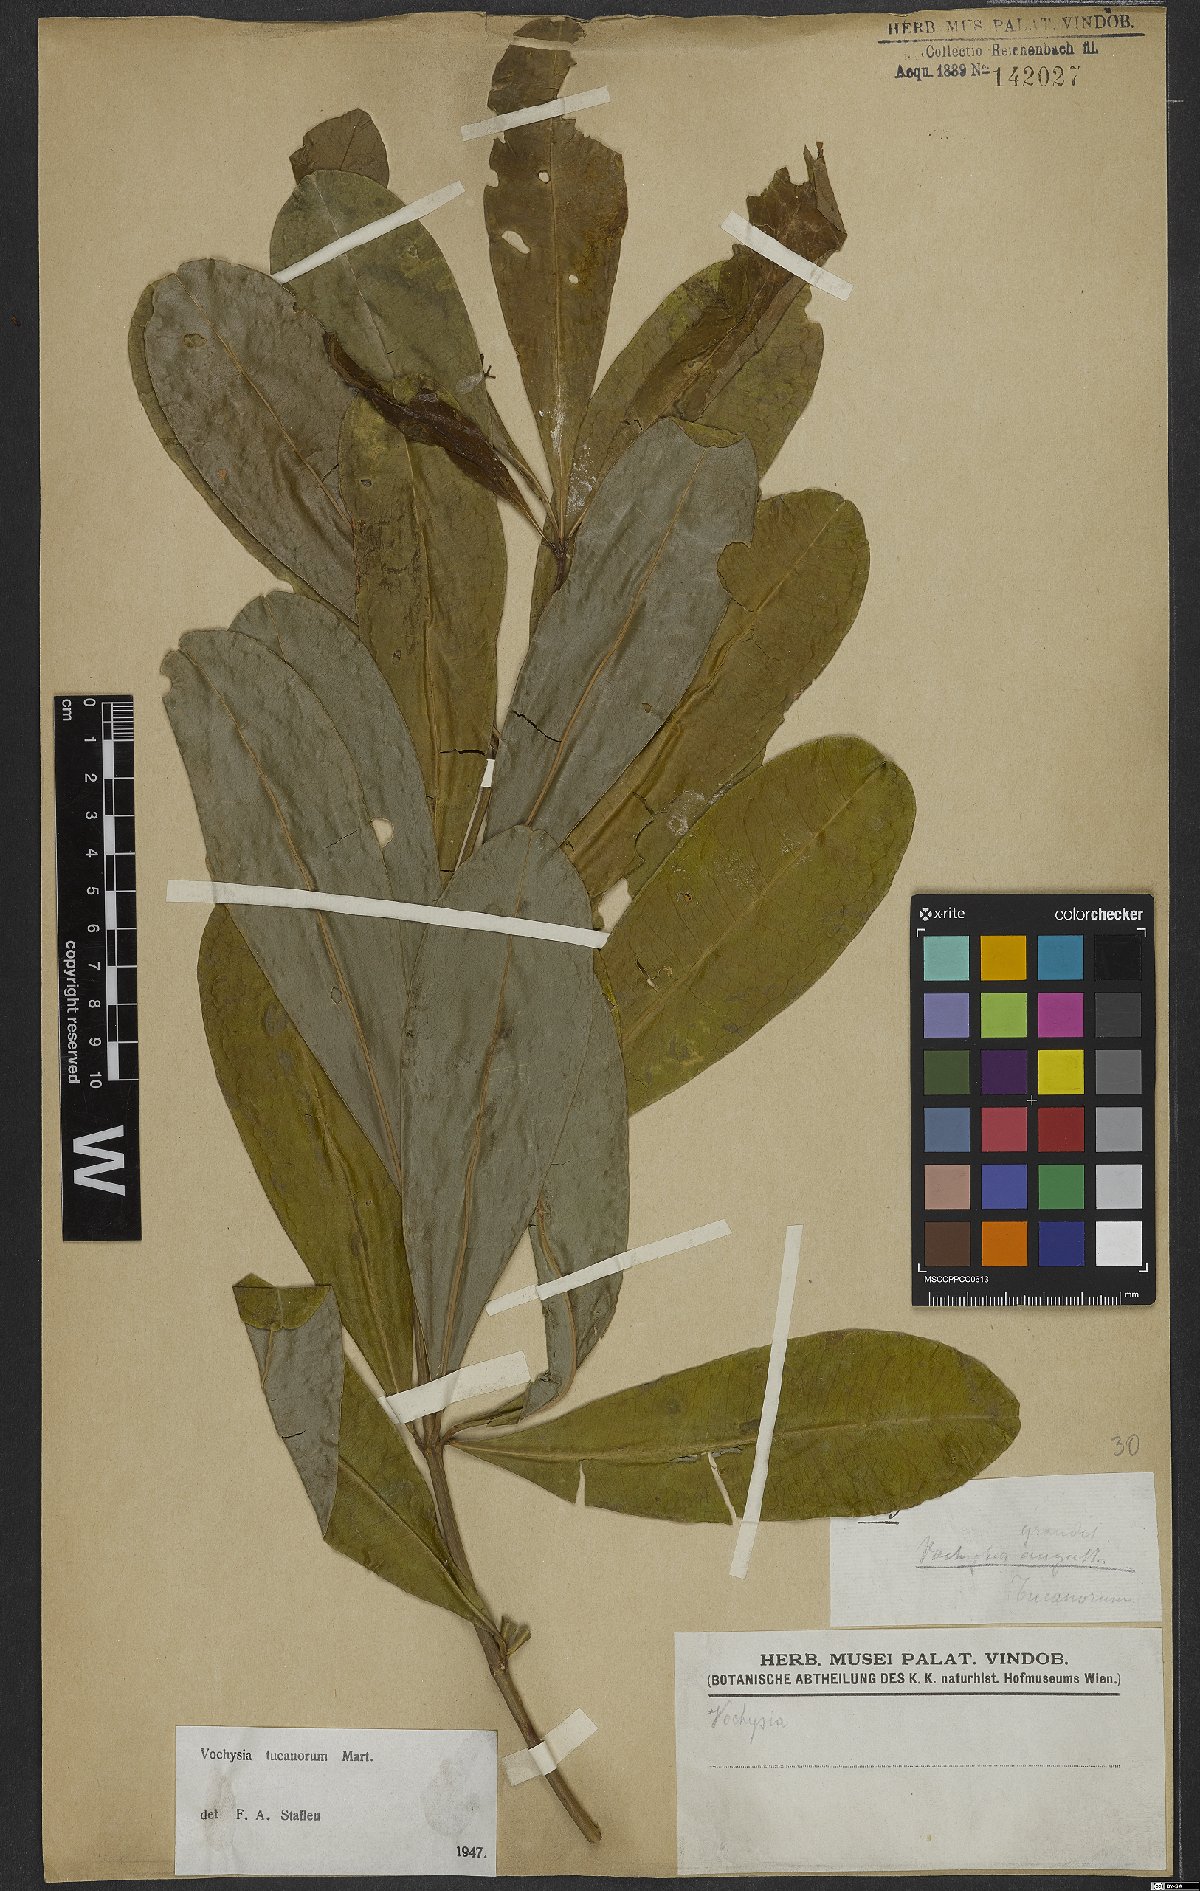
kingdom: Plantae
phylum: Tracheophyta
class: Magnoliopsida
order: Myrtales
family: Vochysiaceae
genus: Vochysia
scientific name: Vochysia tucanorum
